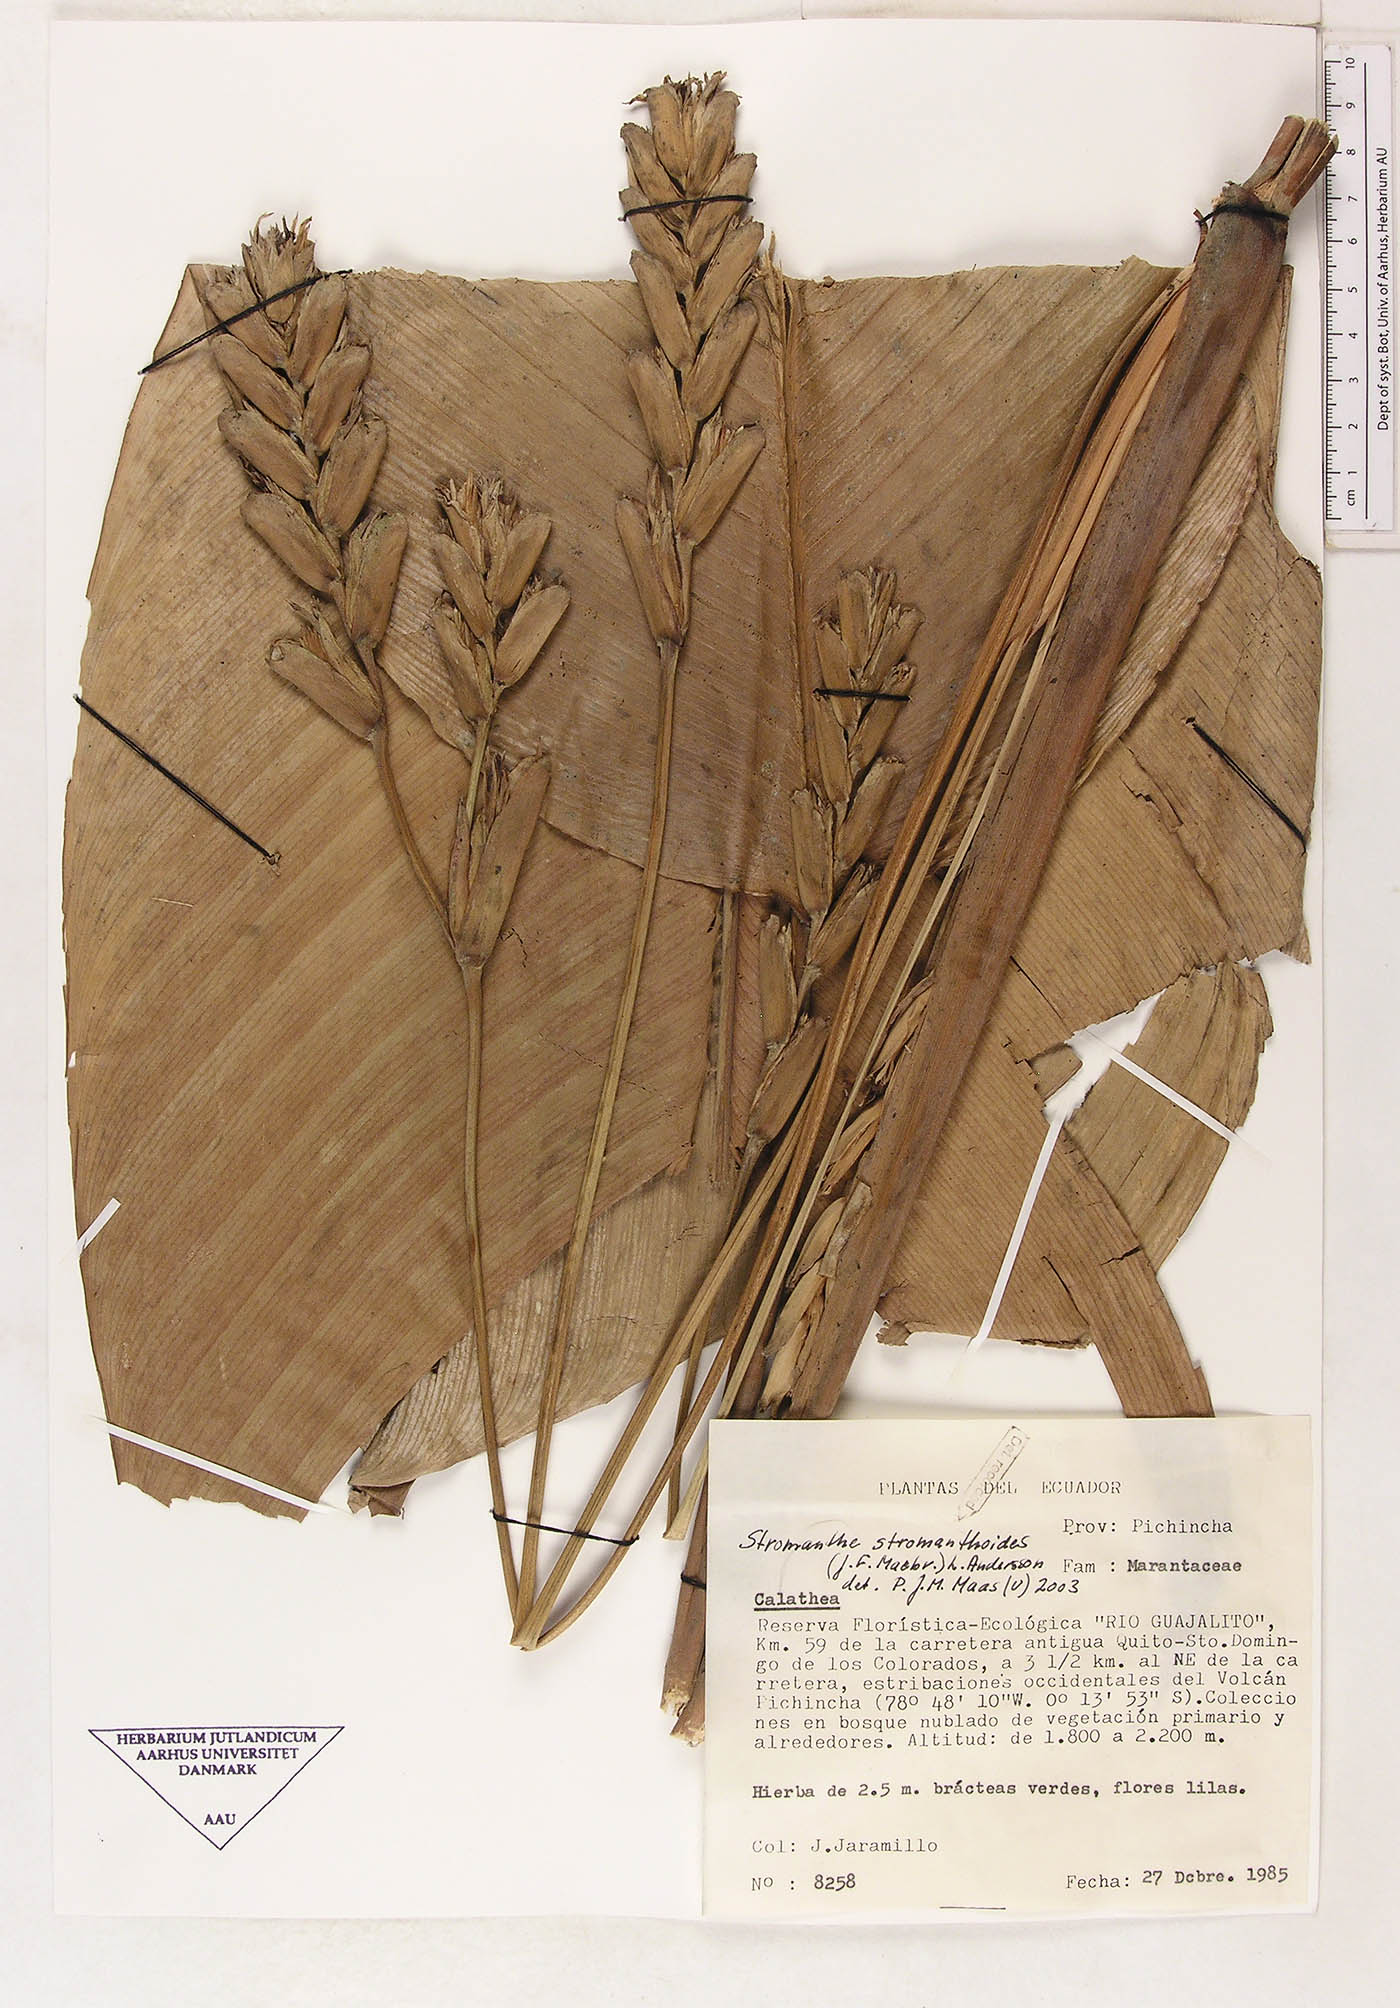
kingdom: Plantae
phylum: Tracheophyta
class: Liliopsida
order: Zingiberales
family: Marantaceae
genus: Stromanthe
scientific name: Stromanthe stromanthoides
